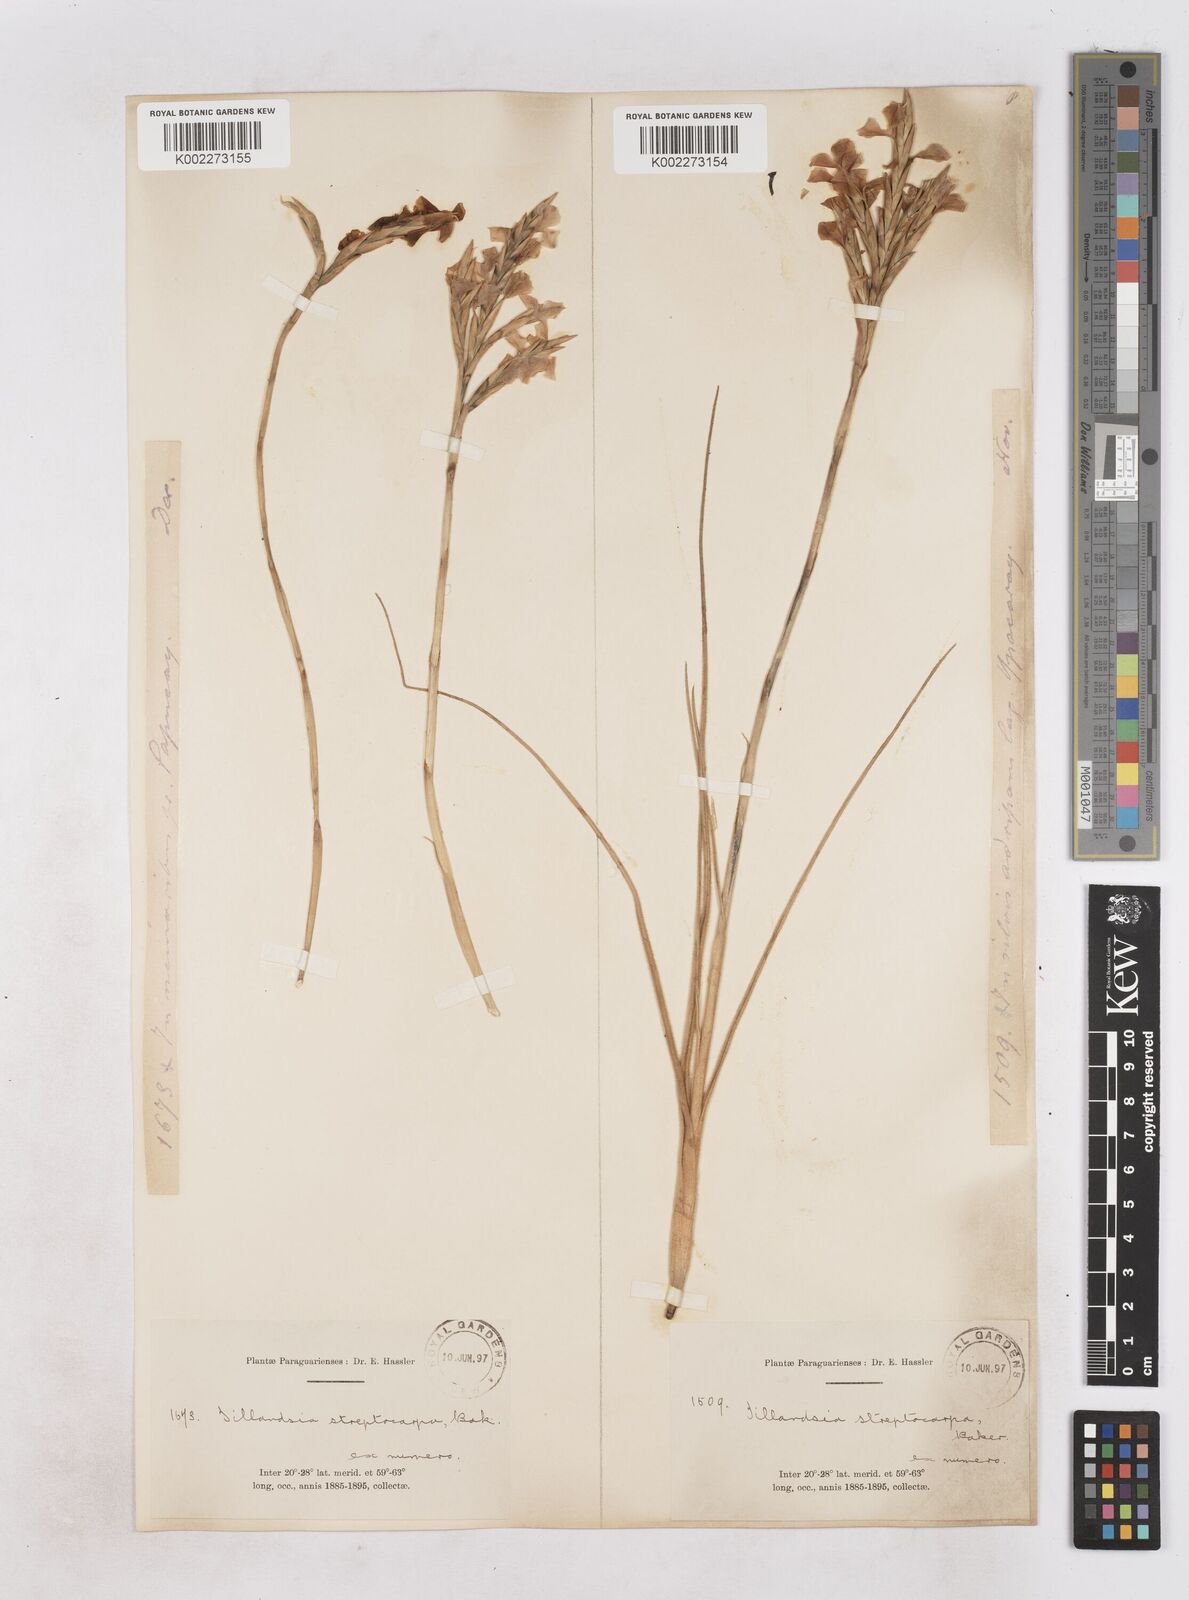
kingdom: Plantae
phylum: Tracheophyta
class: Liliopsida
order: Poales
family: Bromeliaceae
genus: Tillandsia
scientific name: Tillandsia restrepoana
